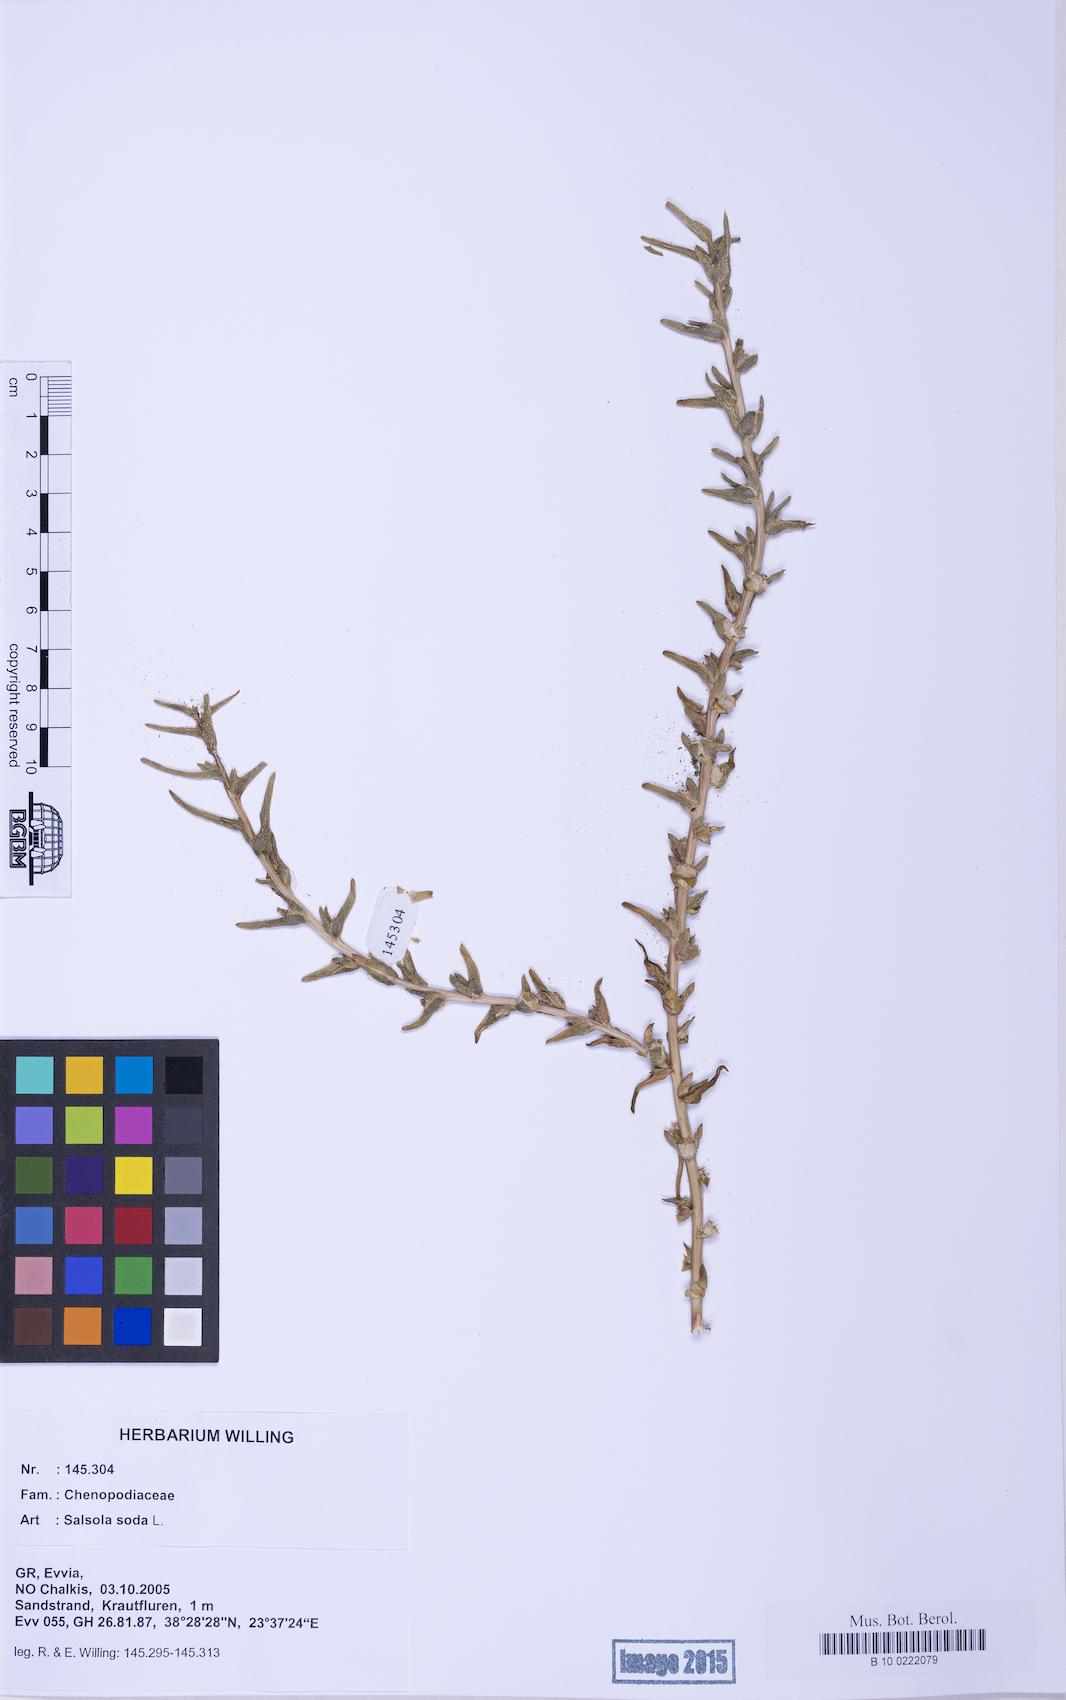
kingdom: Plantae
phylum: Tracheophyta
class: Magnoliopsida
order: Caryophyllales
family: Amaranthaceae
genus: Soda
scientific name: Soda inermis
